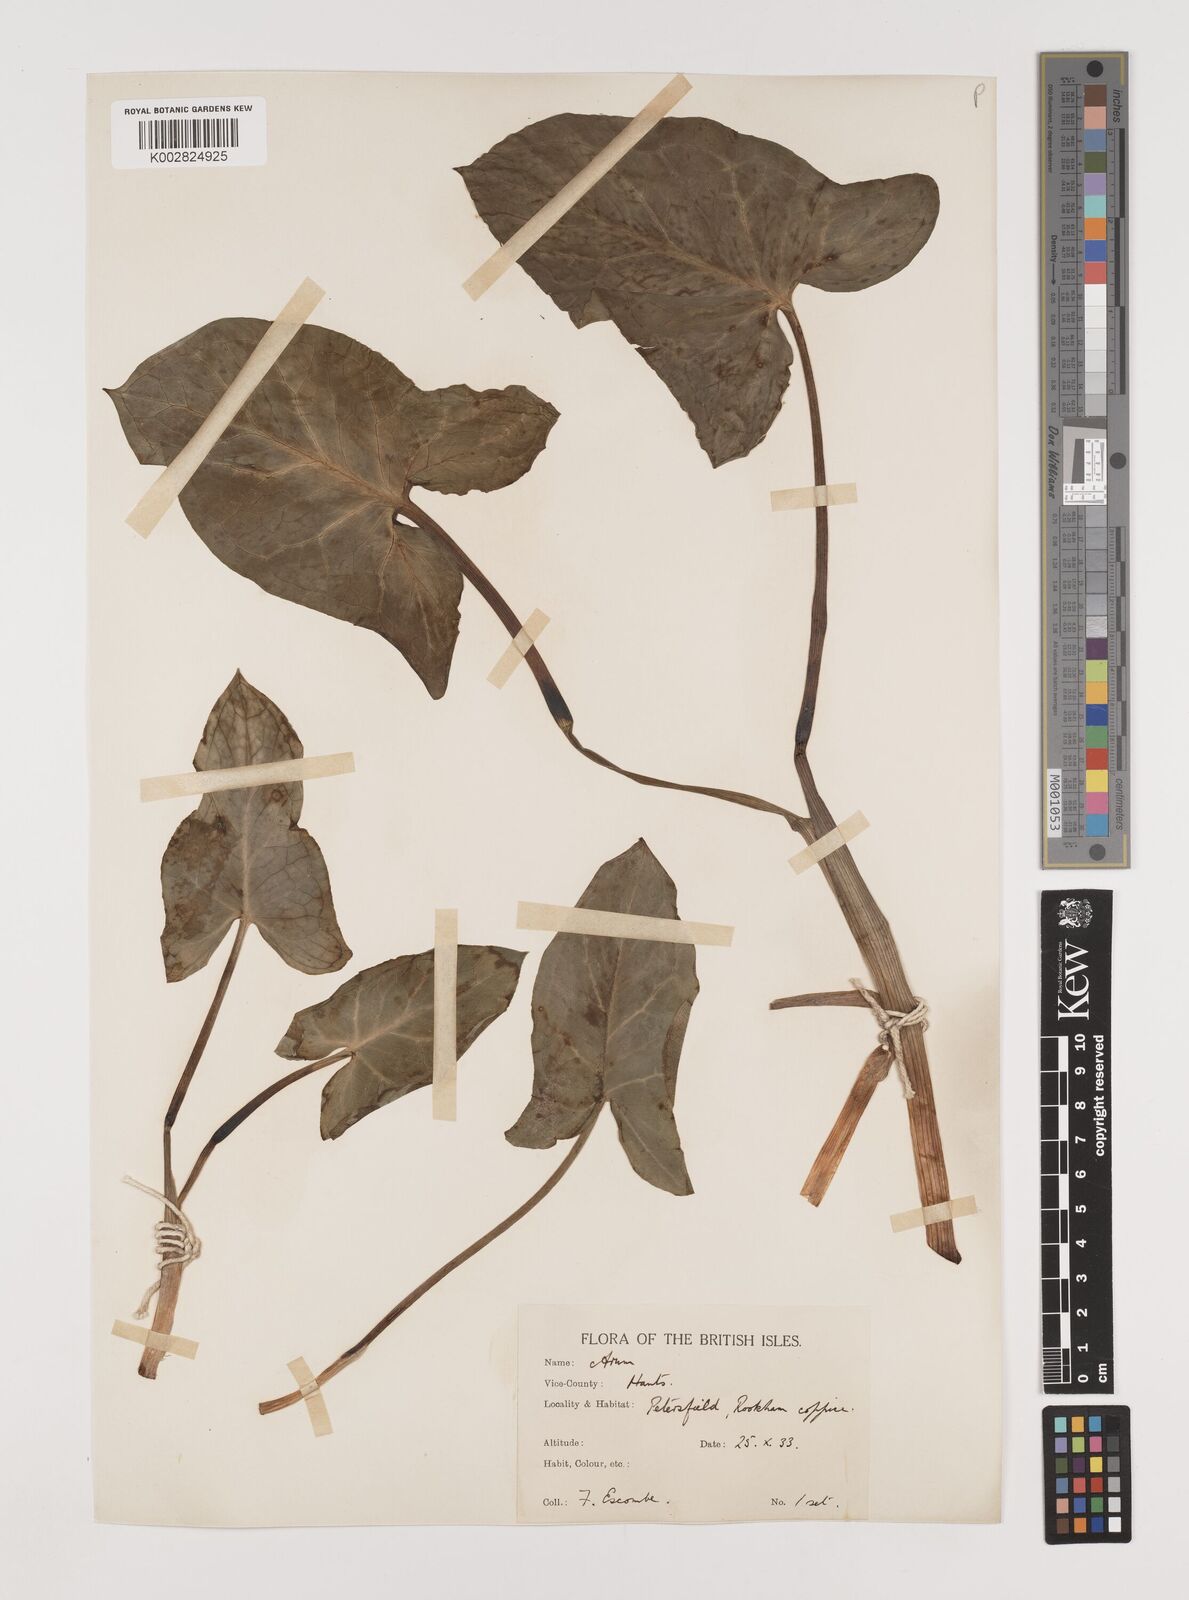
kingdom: Plantae
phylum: Tracheophyta
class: Liliopsida
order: Alismatales
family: Araceae
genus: Arum
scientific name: Arum italicum
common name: Italian lords-and-ladies
